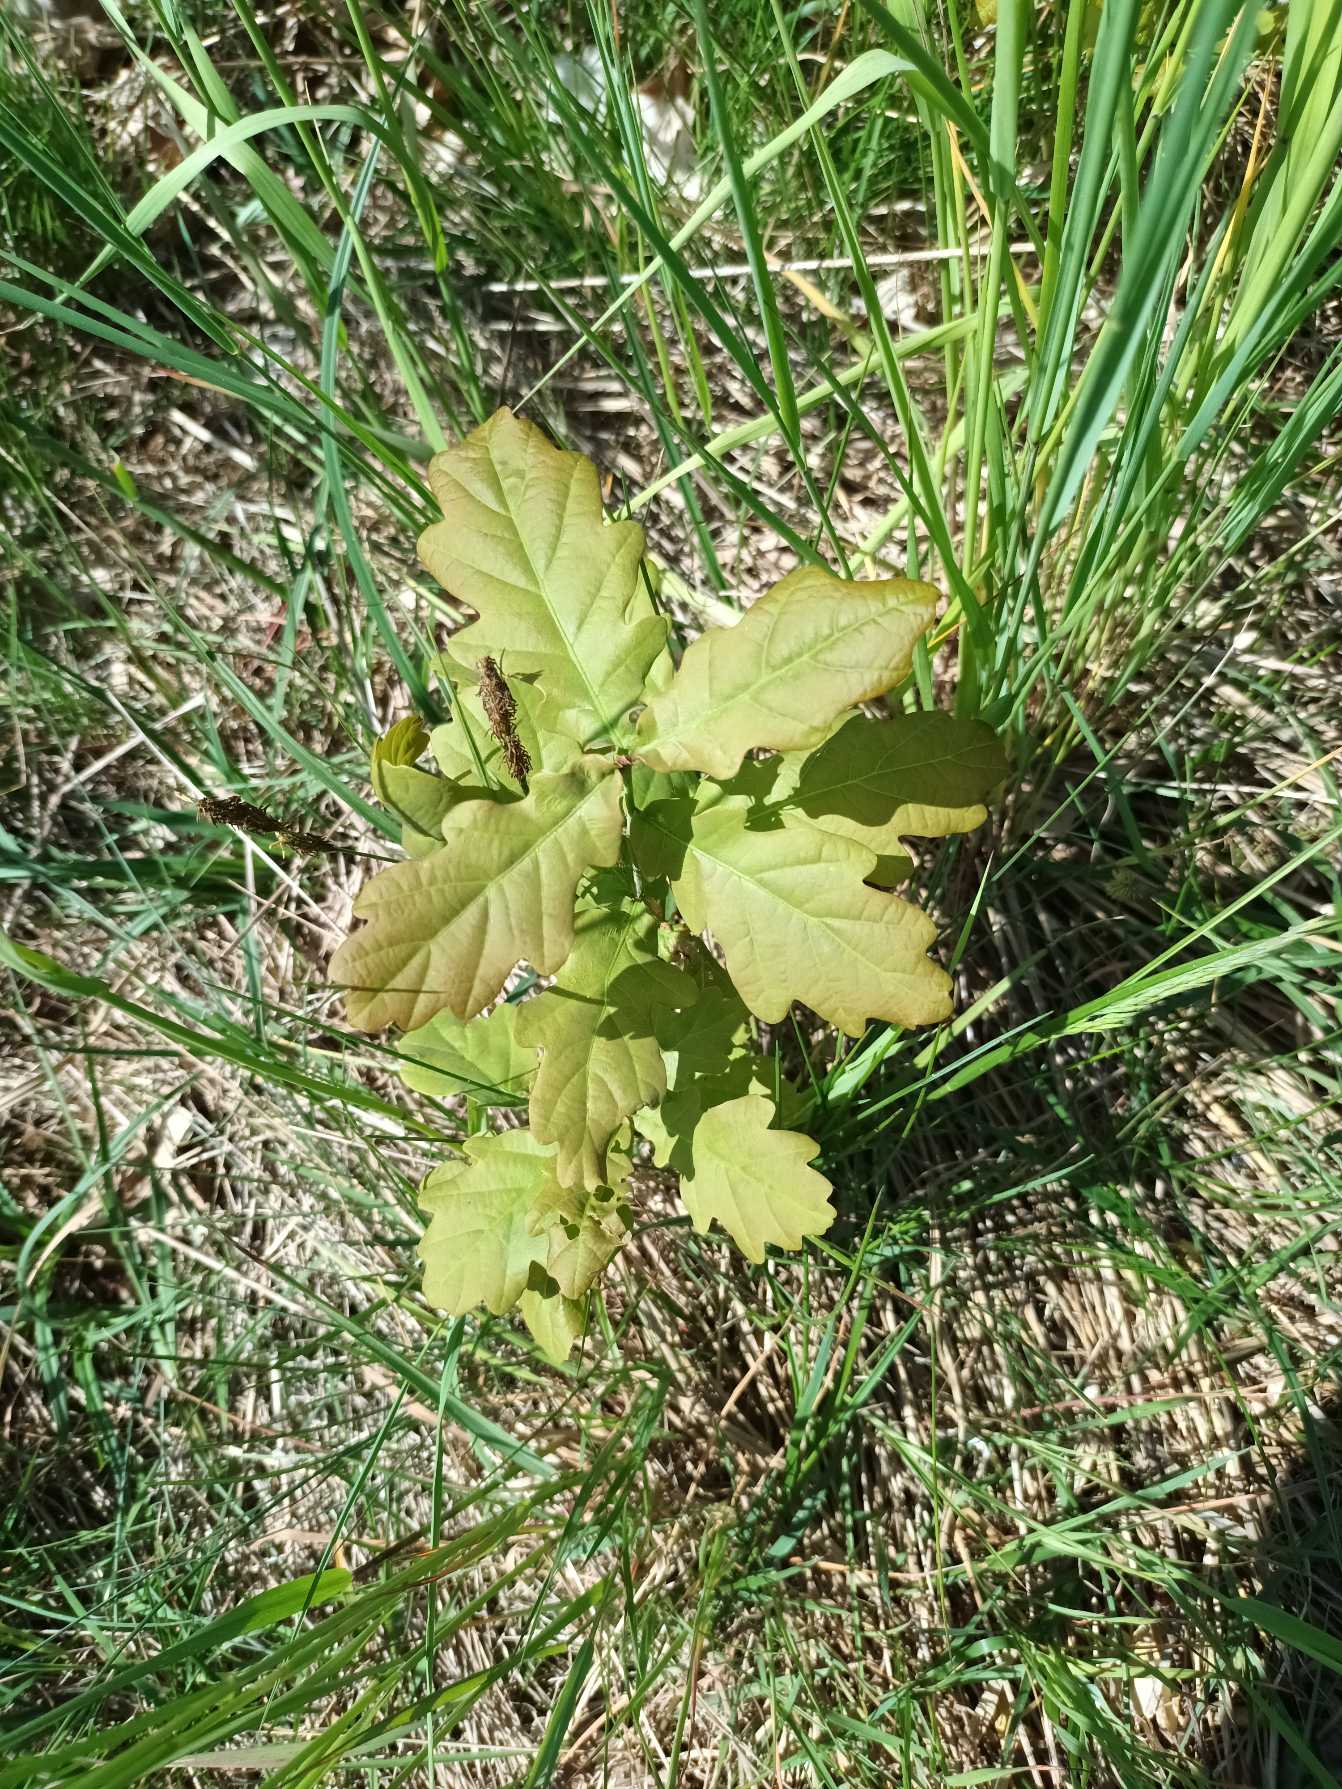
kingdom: Plantae
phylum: Tracheophyta
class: Magnoliopsida
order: Fagales
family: Fagaceae
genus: Quercus
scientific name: Quercus robur
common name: Stilk-eg/almindelig eg
